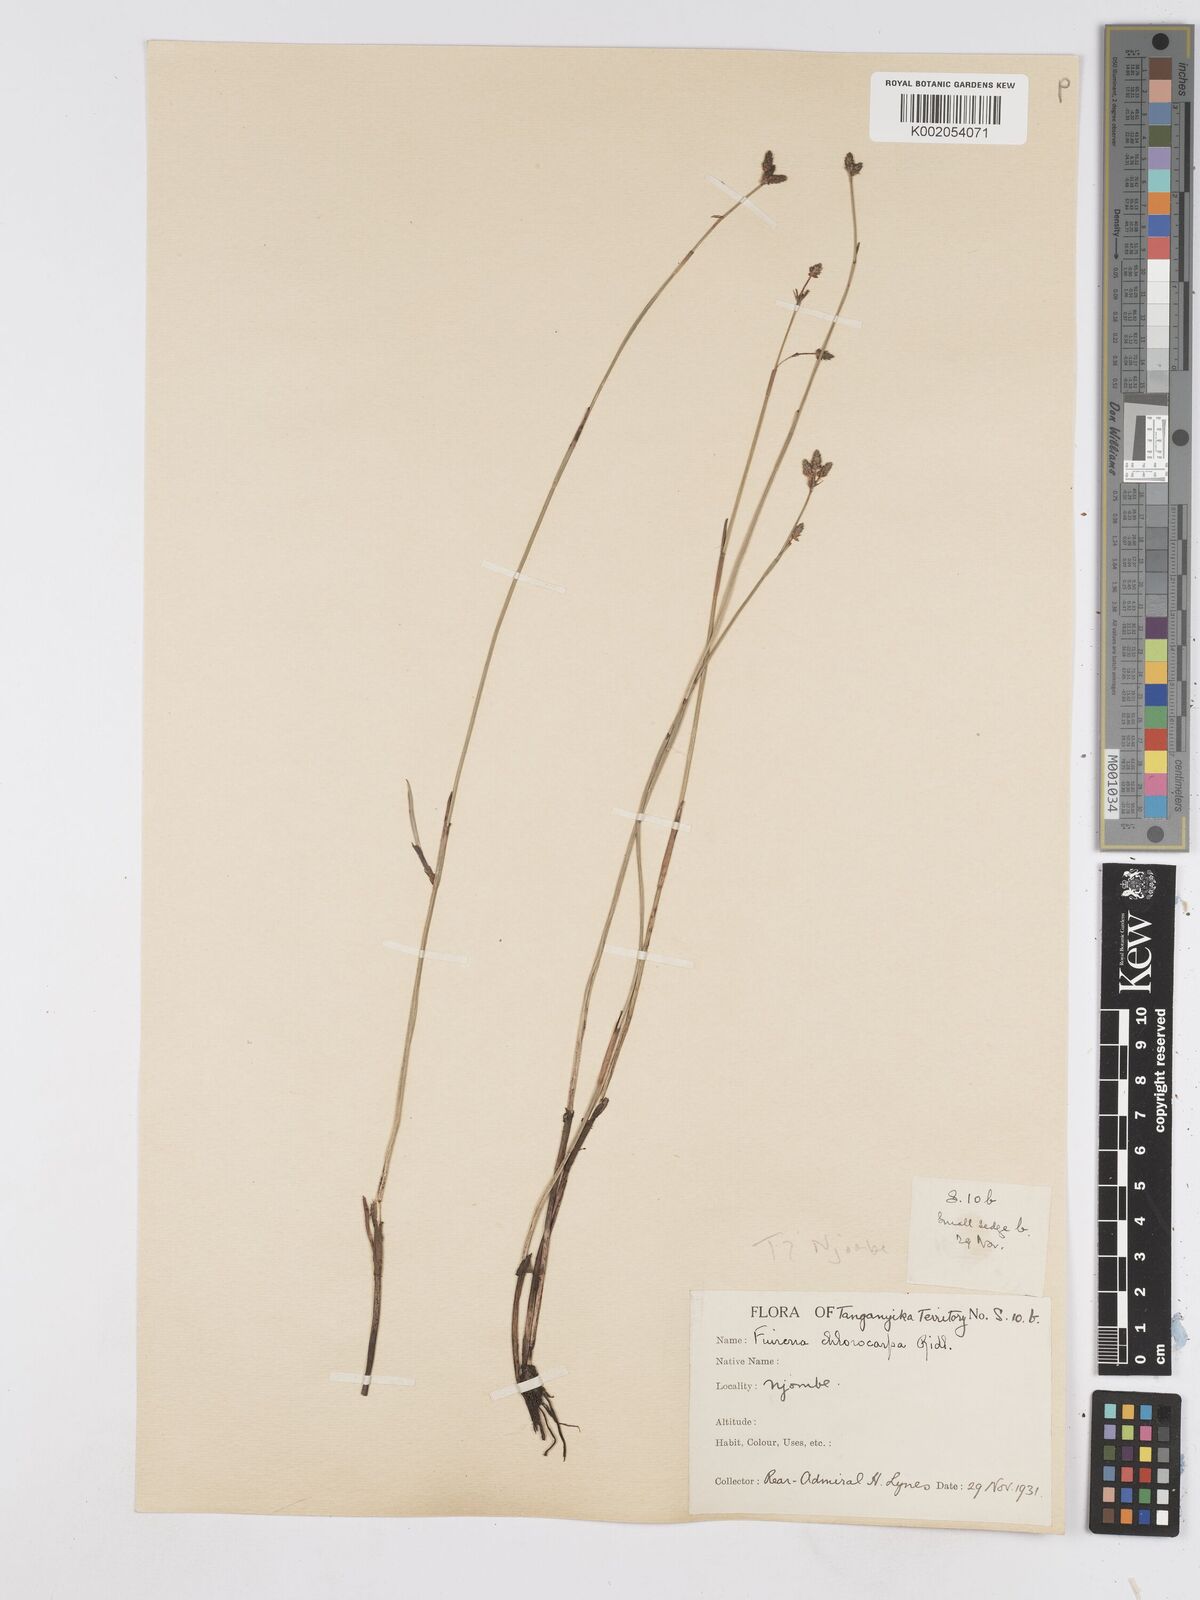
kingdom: Plantae
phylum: Tracheophyta
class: Liliopsida
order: Poales
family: Cyperaceae
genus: Fuirena
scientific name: Fuirena stricta
